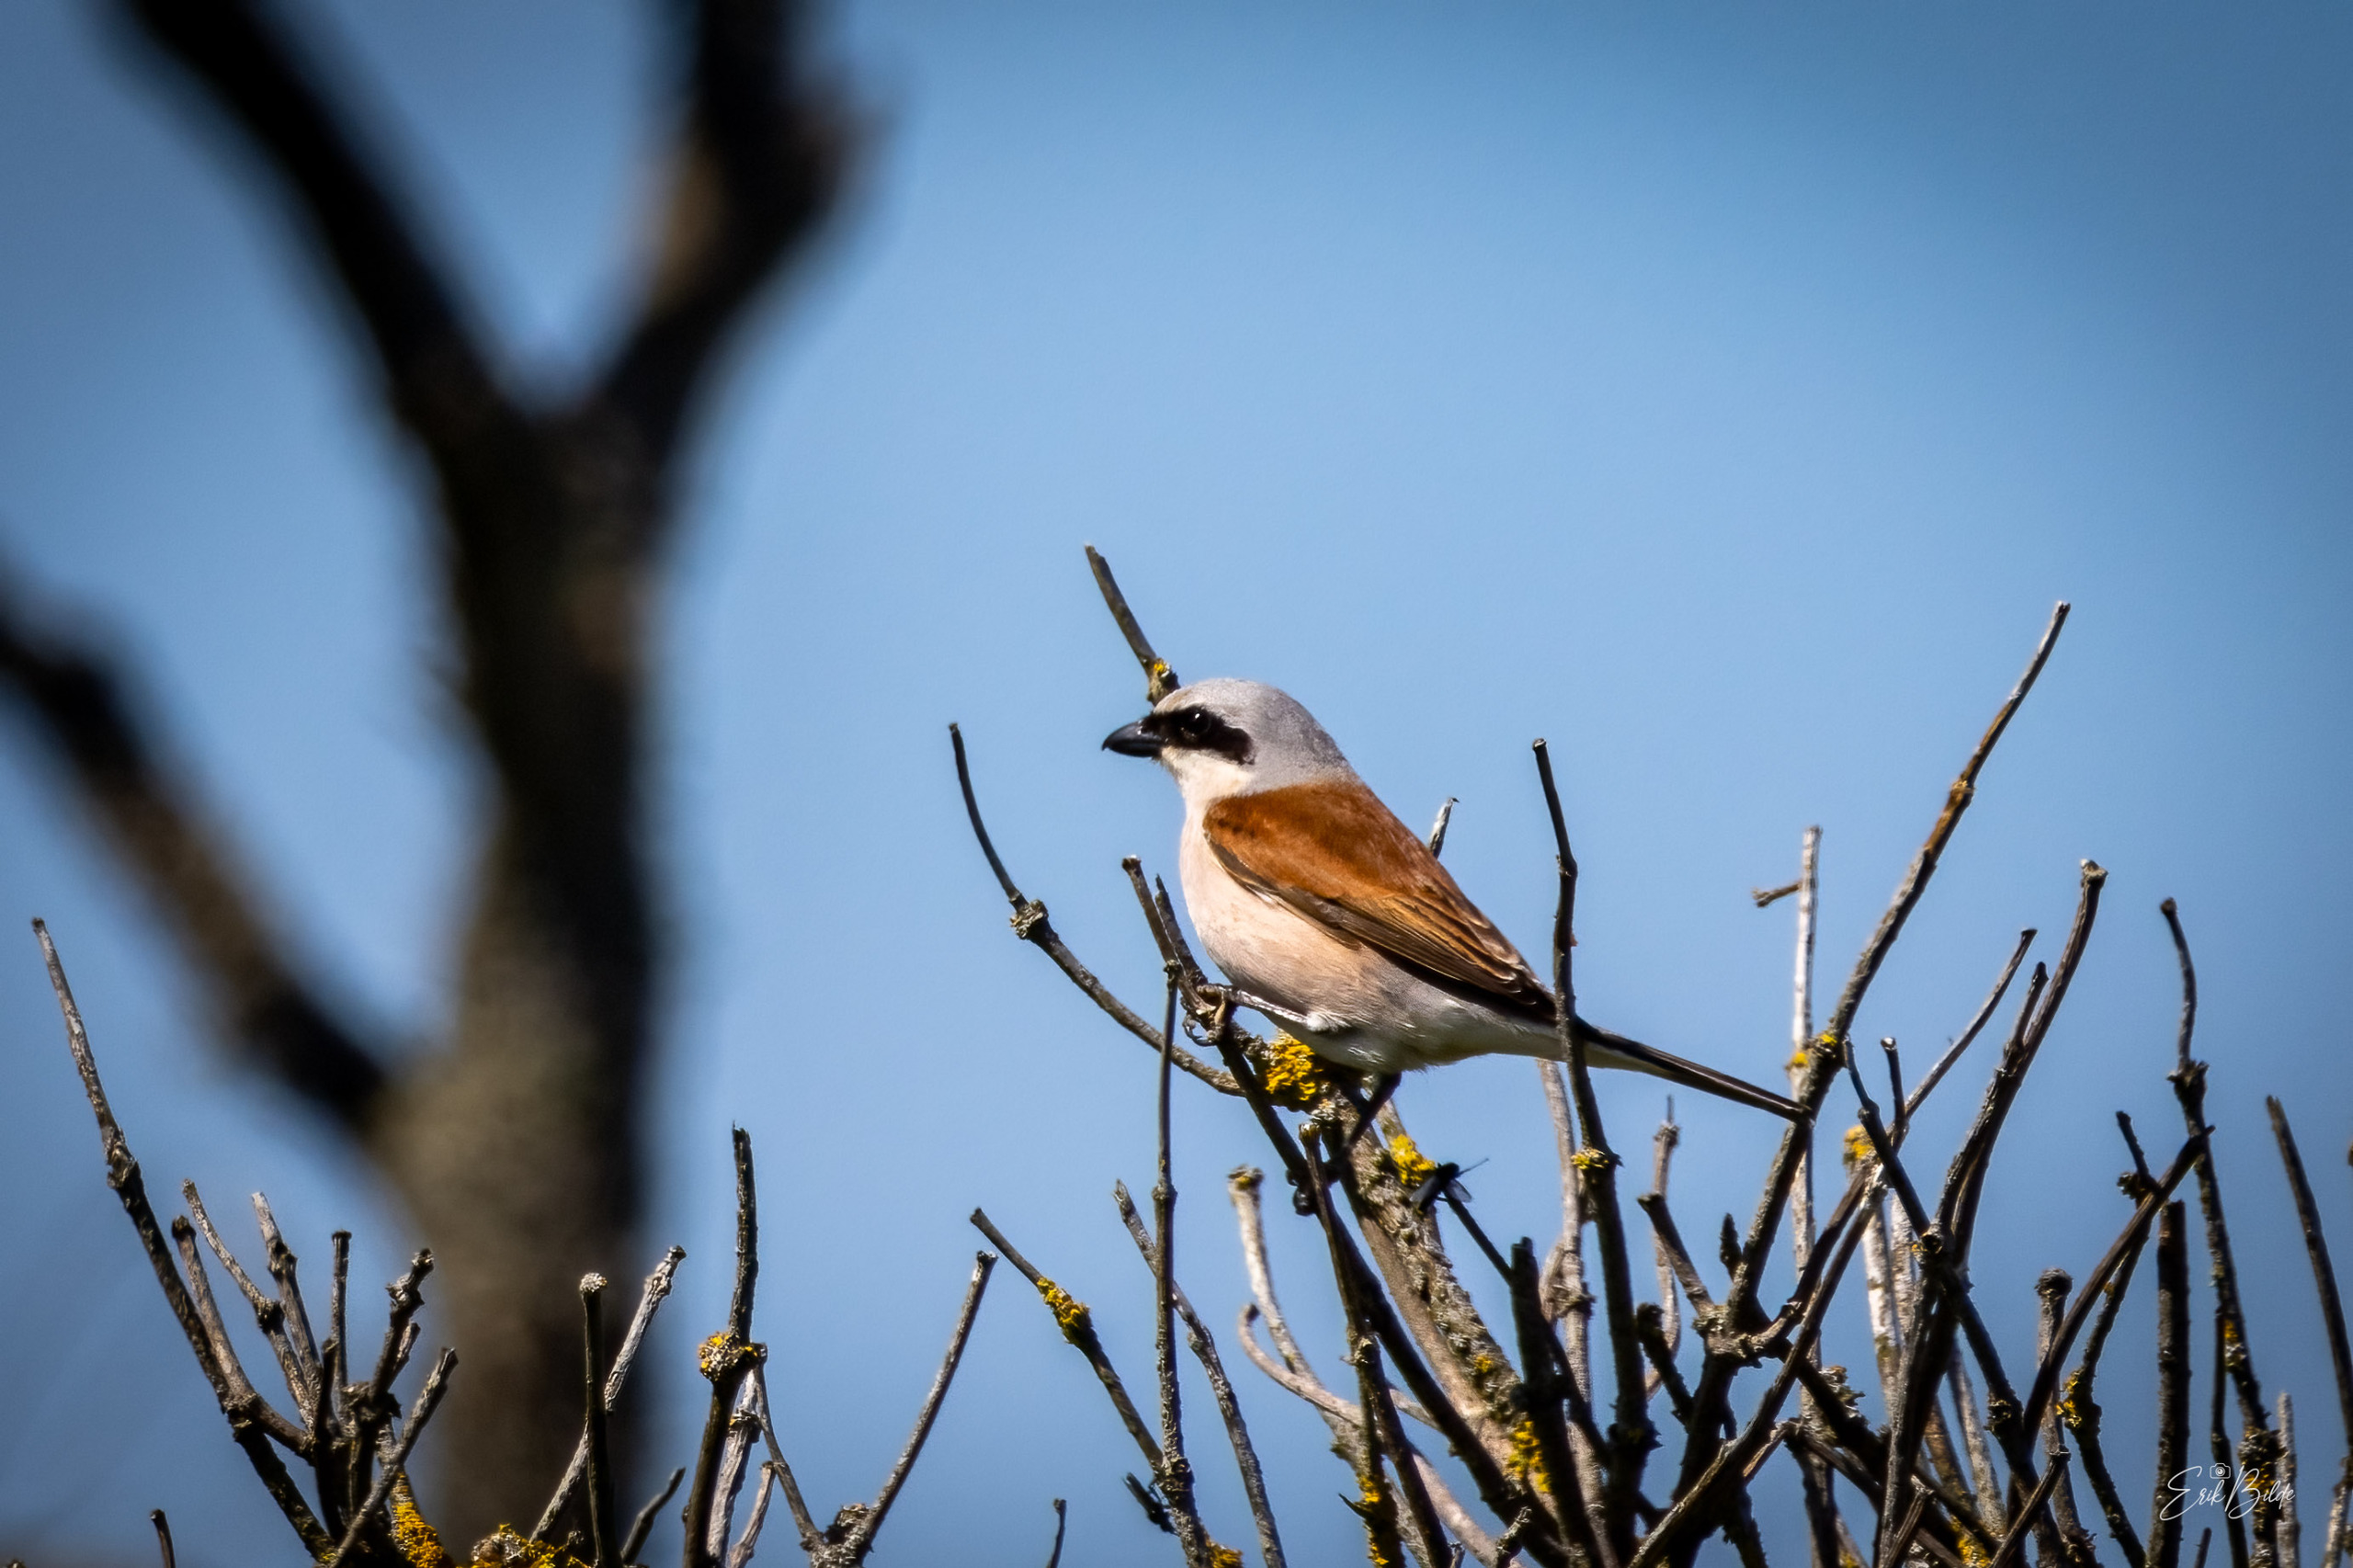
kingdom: Animalia
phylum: Chordata
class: Aves
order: Passeriformes
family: Laniidae
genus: Lanius
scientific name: Lanius collurio
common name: Rødrygget tornskade
